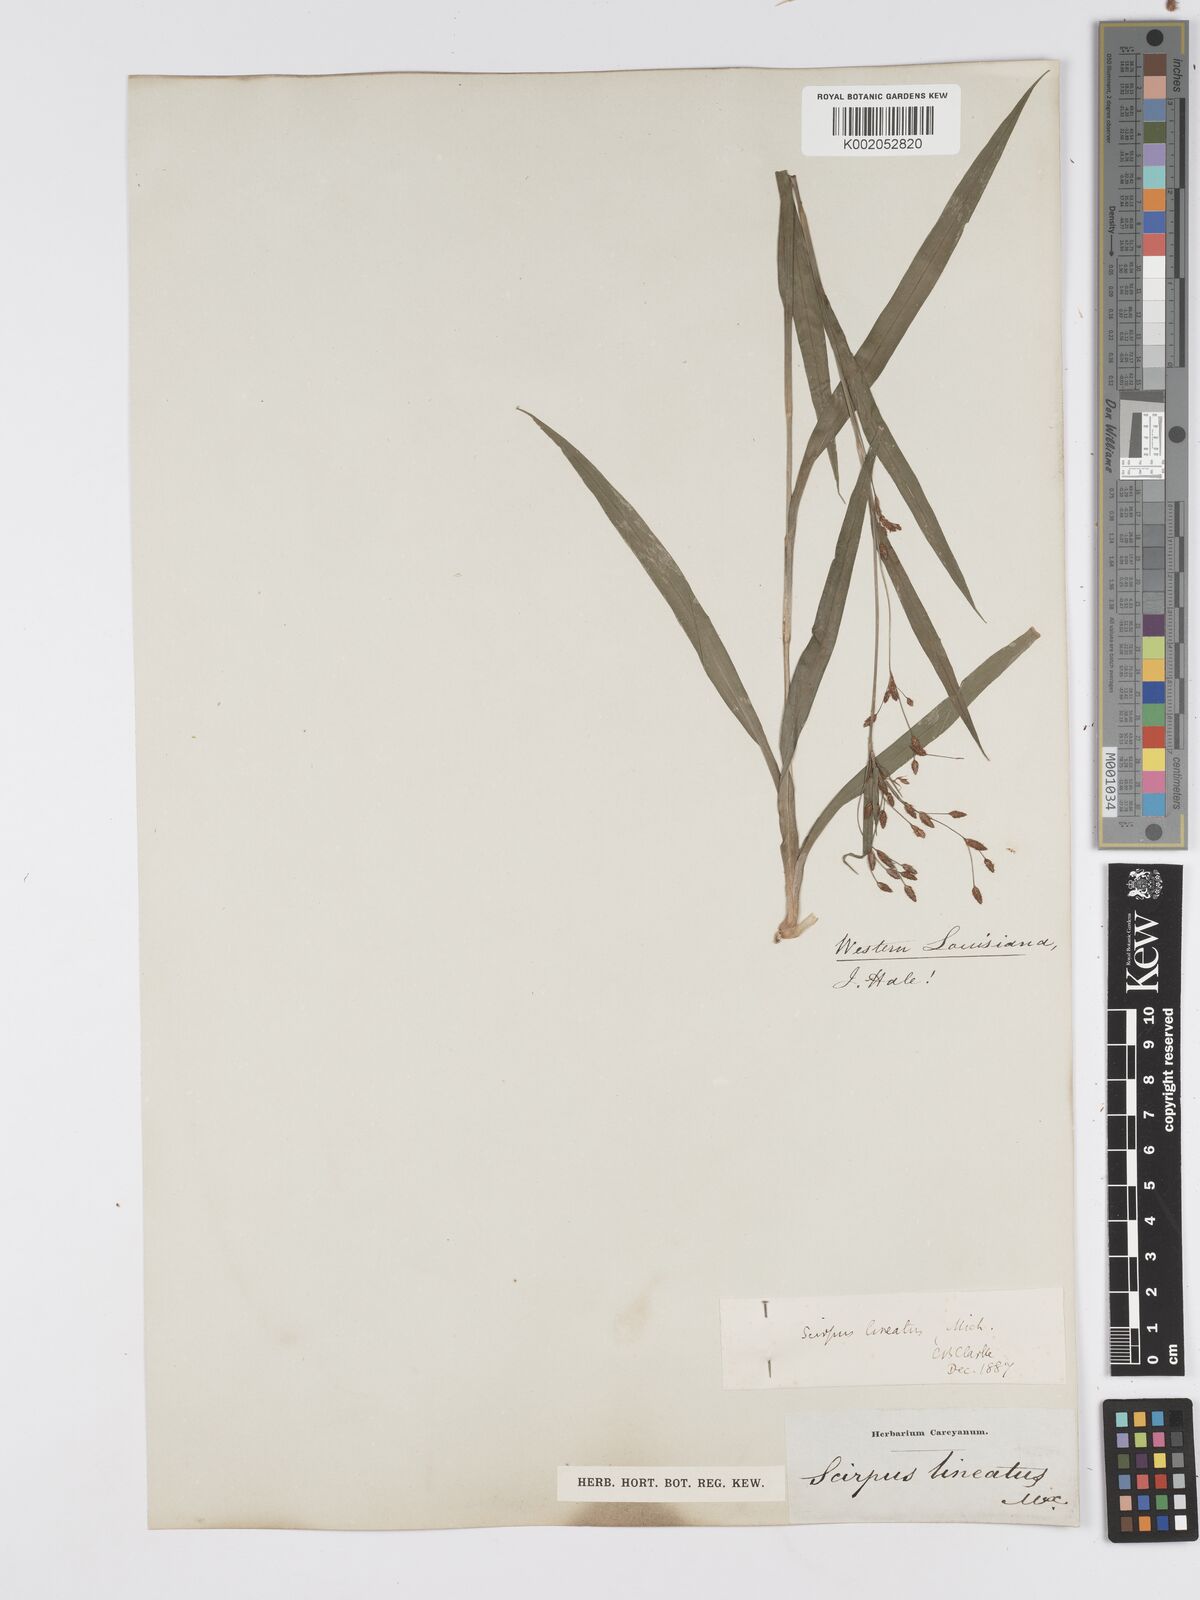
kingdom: Plantae
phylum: Tracheophyta
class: Liliopsida
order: Poales
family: Cyperaceae
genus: Scirpus
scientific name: Scirpus lineatus
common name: Drooping bulrush
